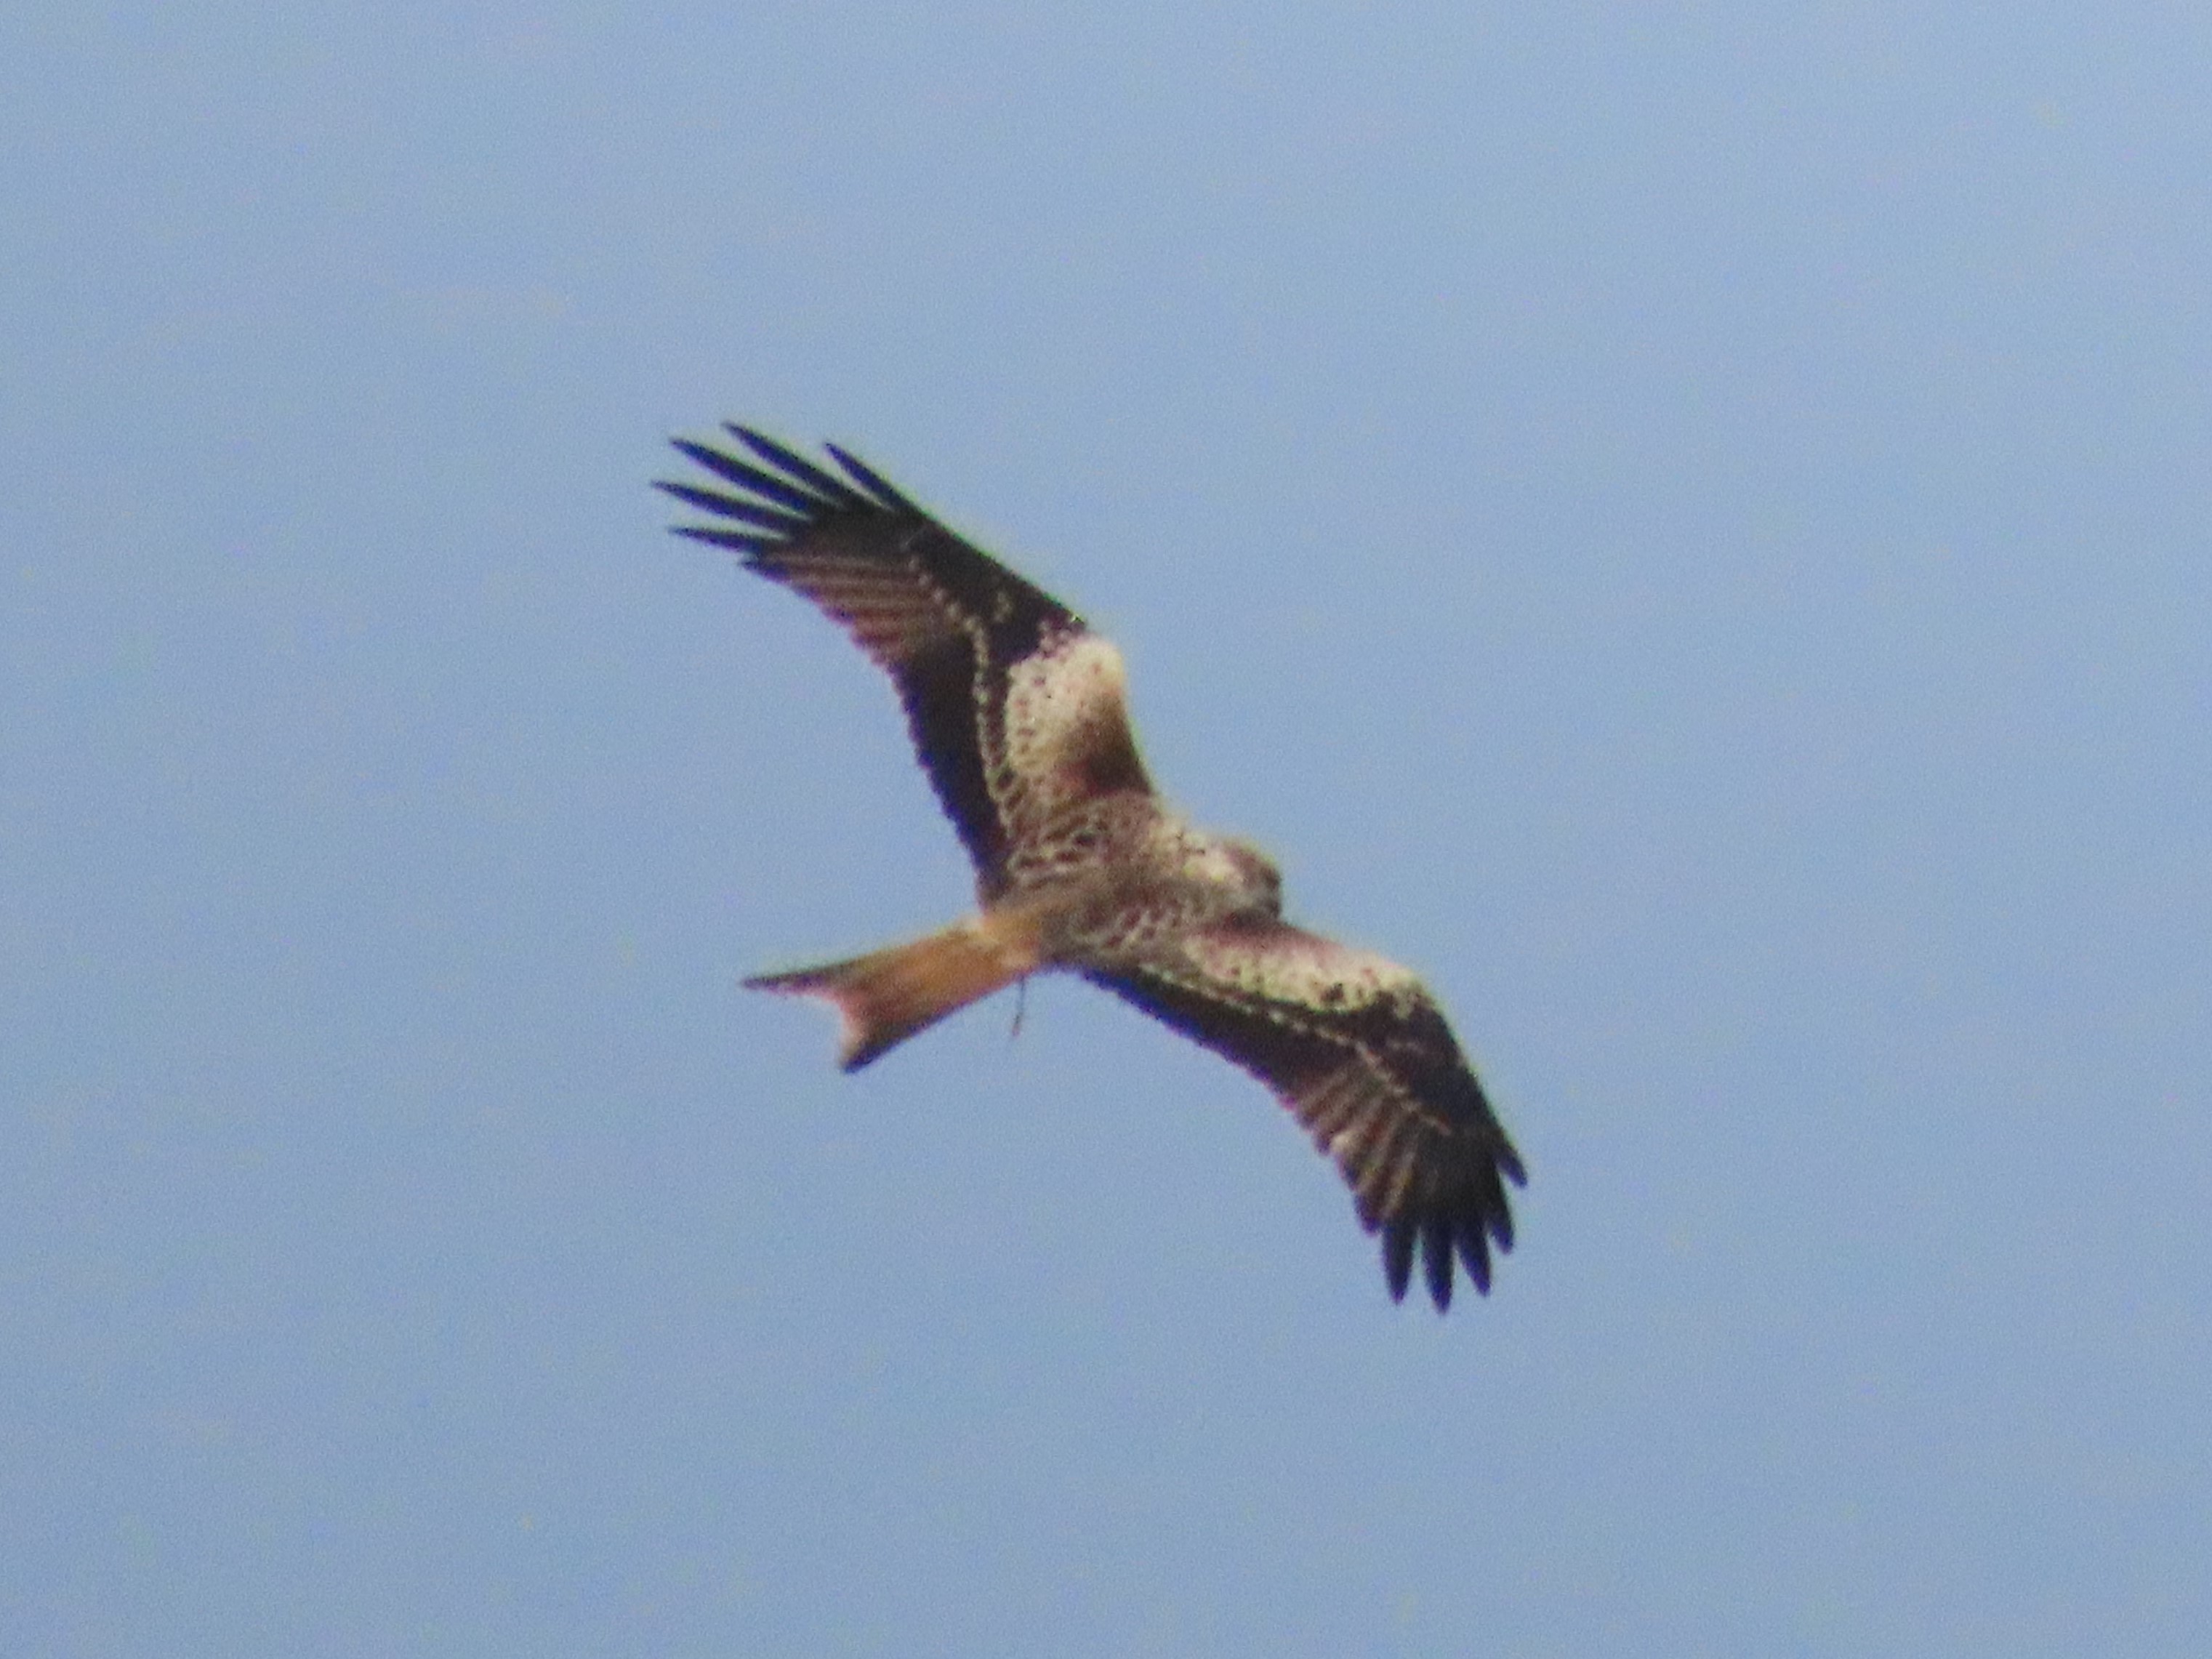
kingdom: Animalia
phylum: Chordata
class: Aves
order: Accipitriformes
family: Accipitridae
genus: Milvus
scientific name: Milvus milvus
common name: Rød glente
